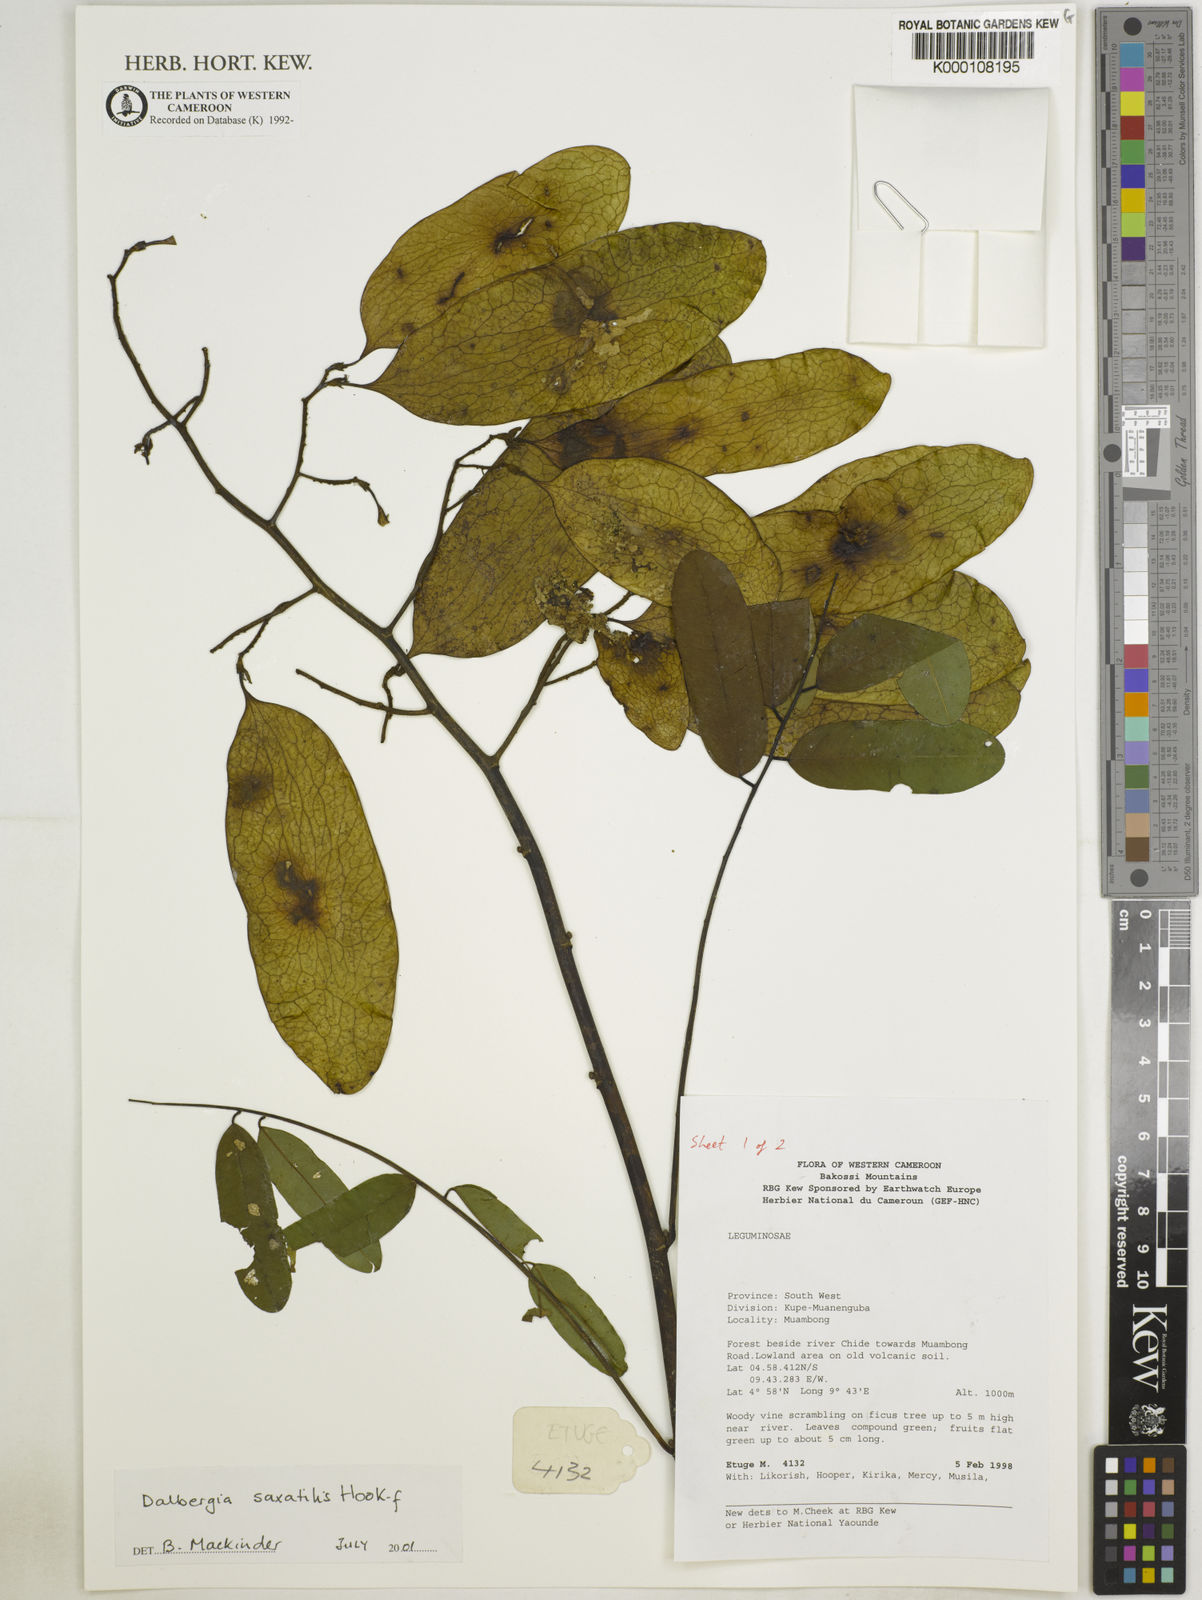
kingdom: Plantae
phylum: Tracheophyta
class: Magnoliopsida
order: Fabales
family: Fabaceae
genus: Dalbergia
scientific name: Dalbergia saxatilis
